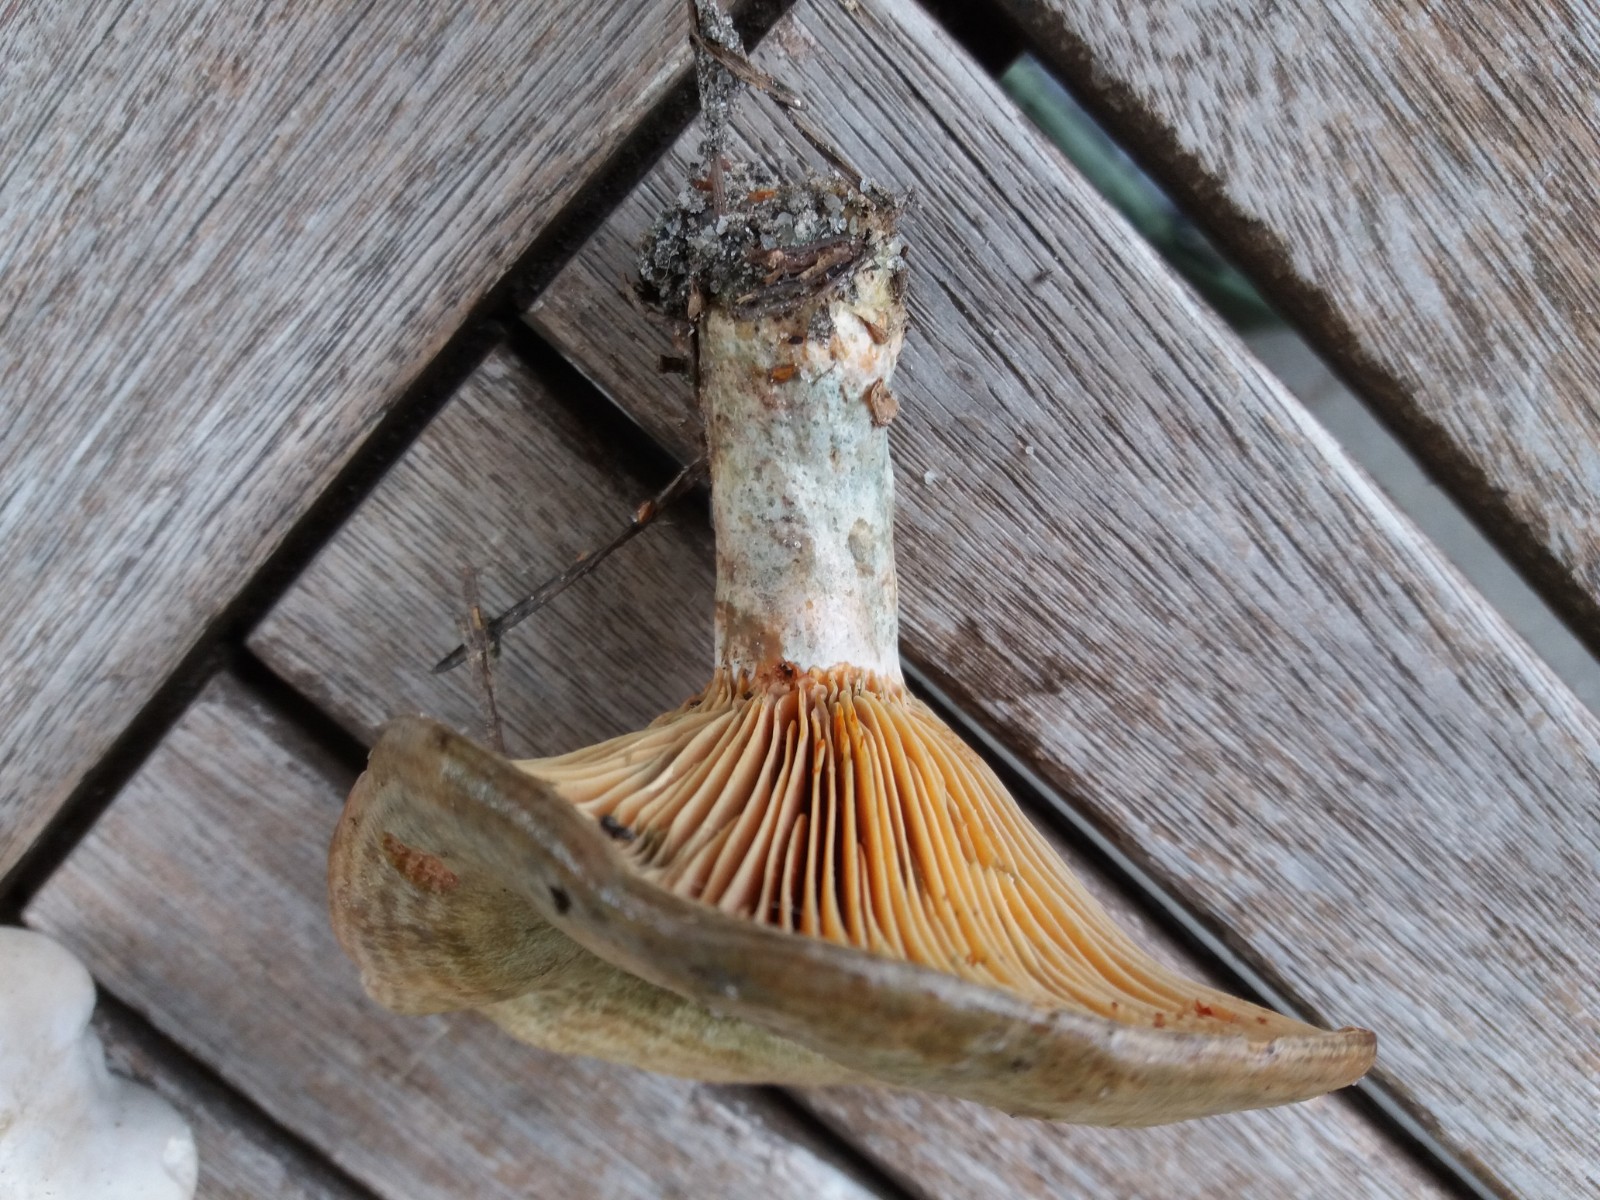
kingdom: Fungi
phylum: Basidiomycota
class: Agaricomycetes
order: Russulales
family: Russulaceae
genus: Lactarius
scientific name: Lactarius quieticolor
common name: tvefarvet mælkehat
